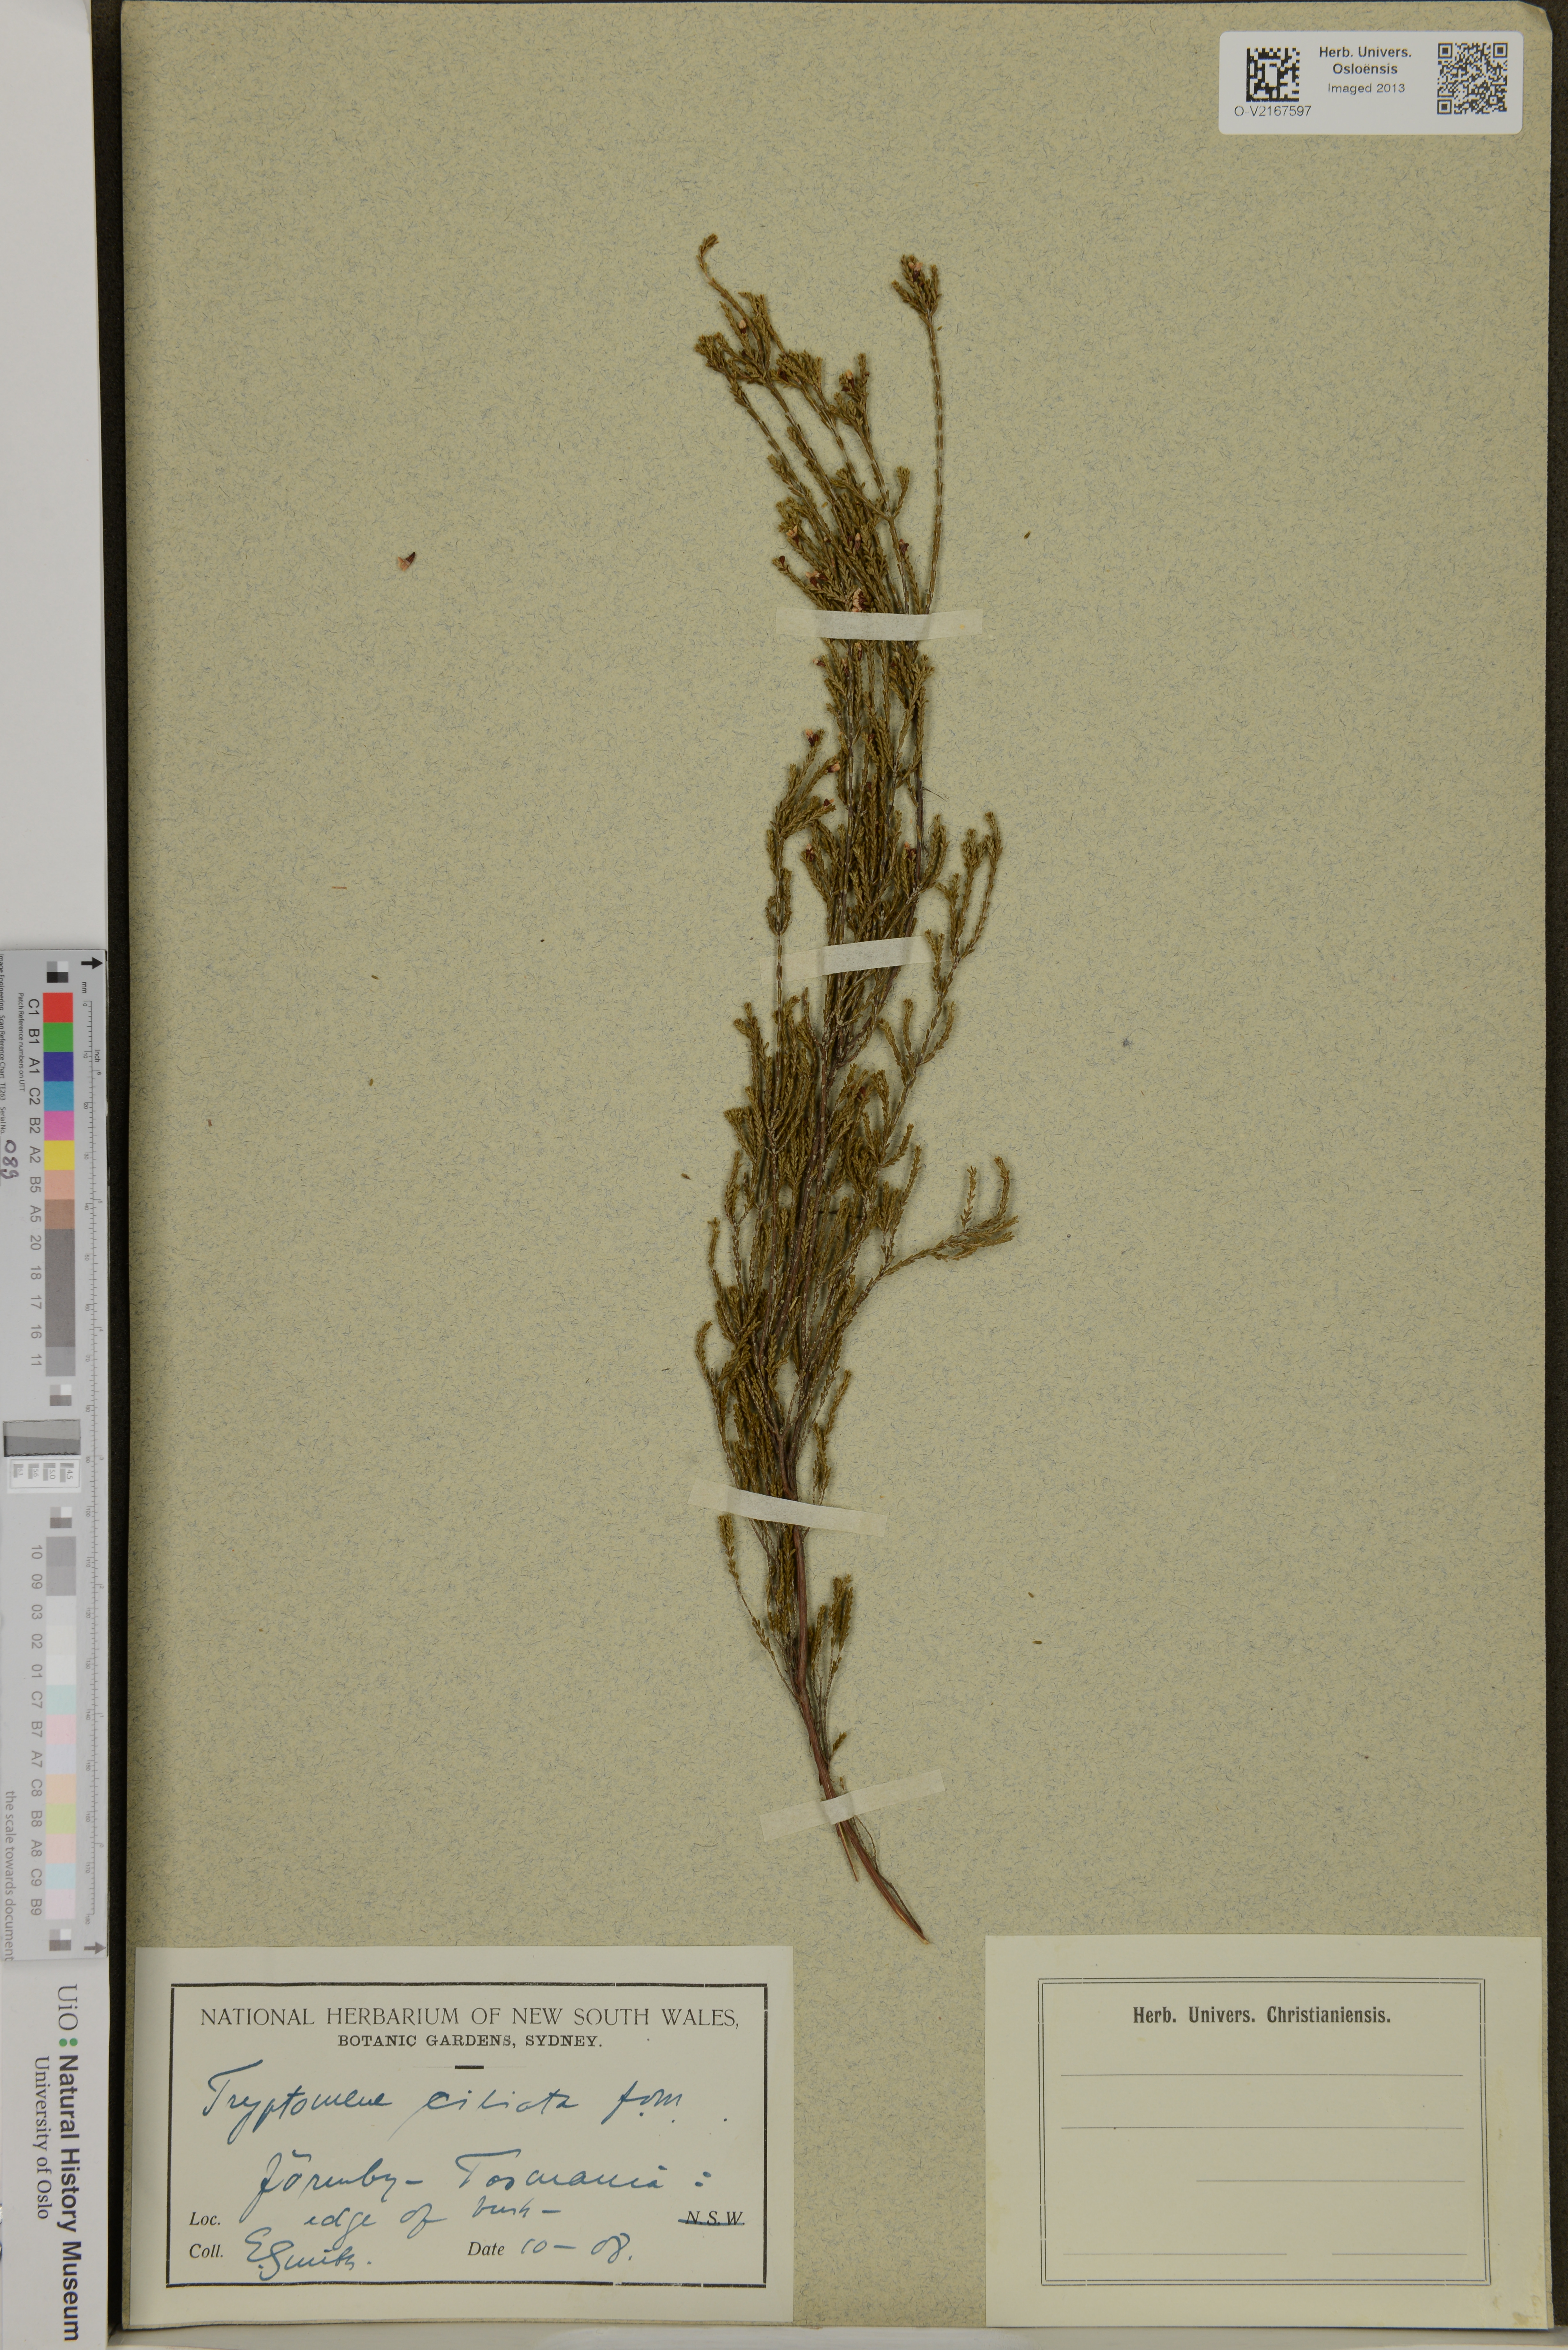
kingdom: Plantae
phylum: Tracheophyta
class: Magnoliopsida
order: Myrtales
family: Myrtaceae
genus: Thryptomene
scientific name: Thryptomene ciliata
